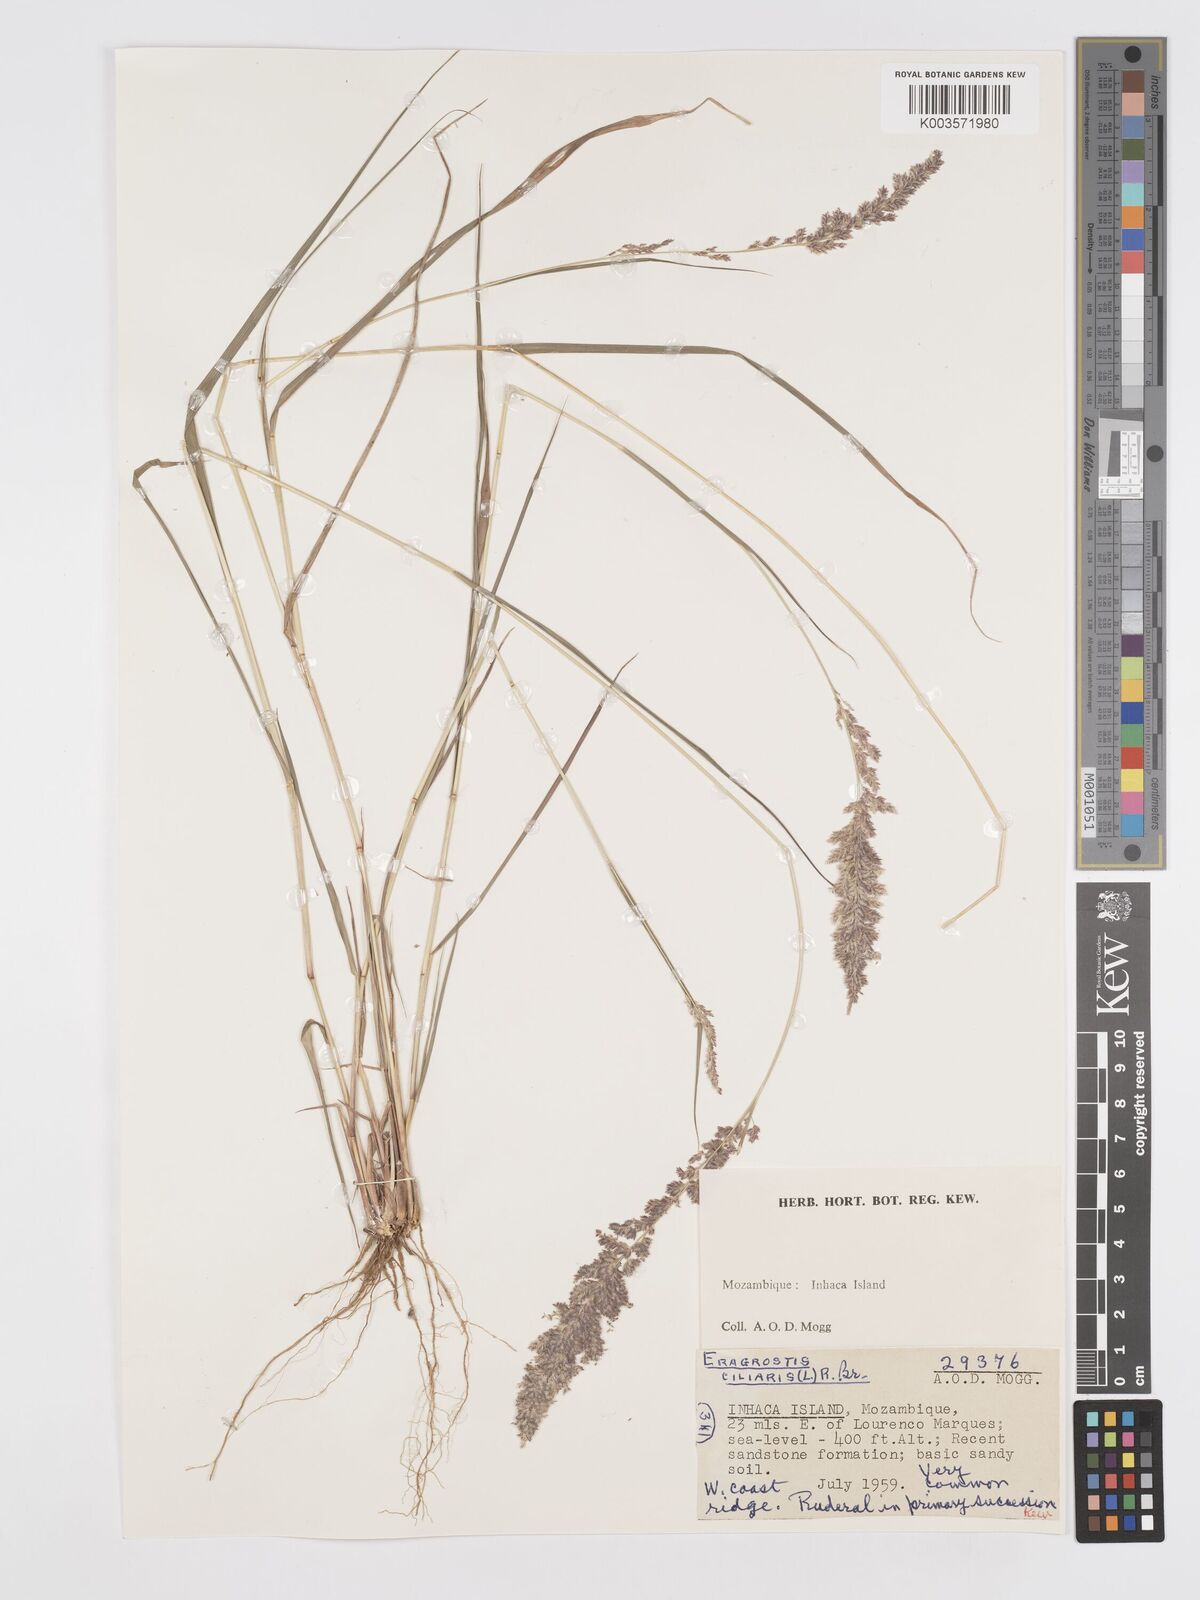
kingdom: Plantae
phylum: Tracheophyta
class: Liliopsida
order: Poales
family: Poaceae
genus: Eragrostis
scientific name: Eragrostis ciliaris
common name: Gophertail lovegrass
